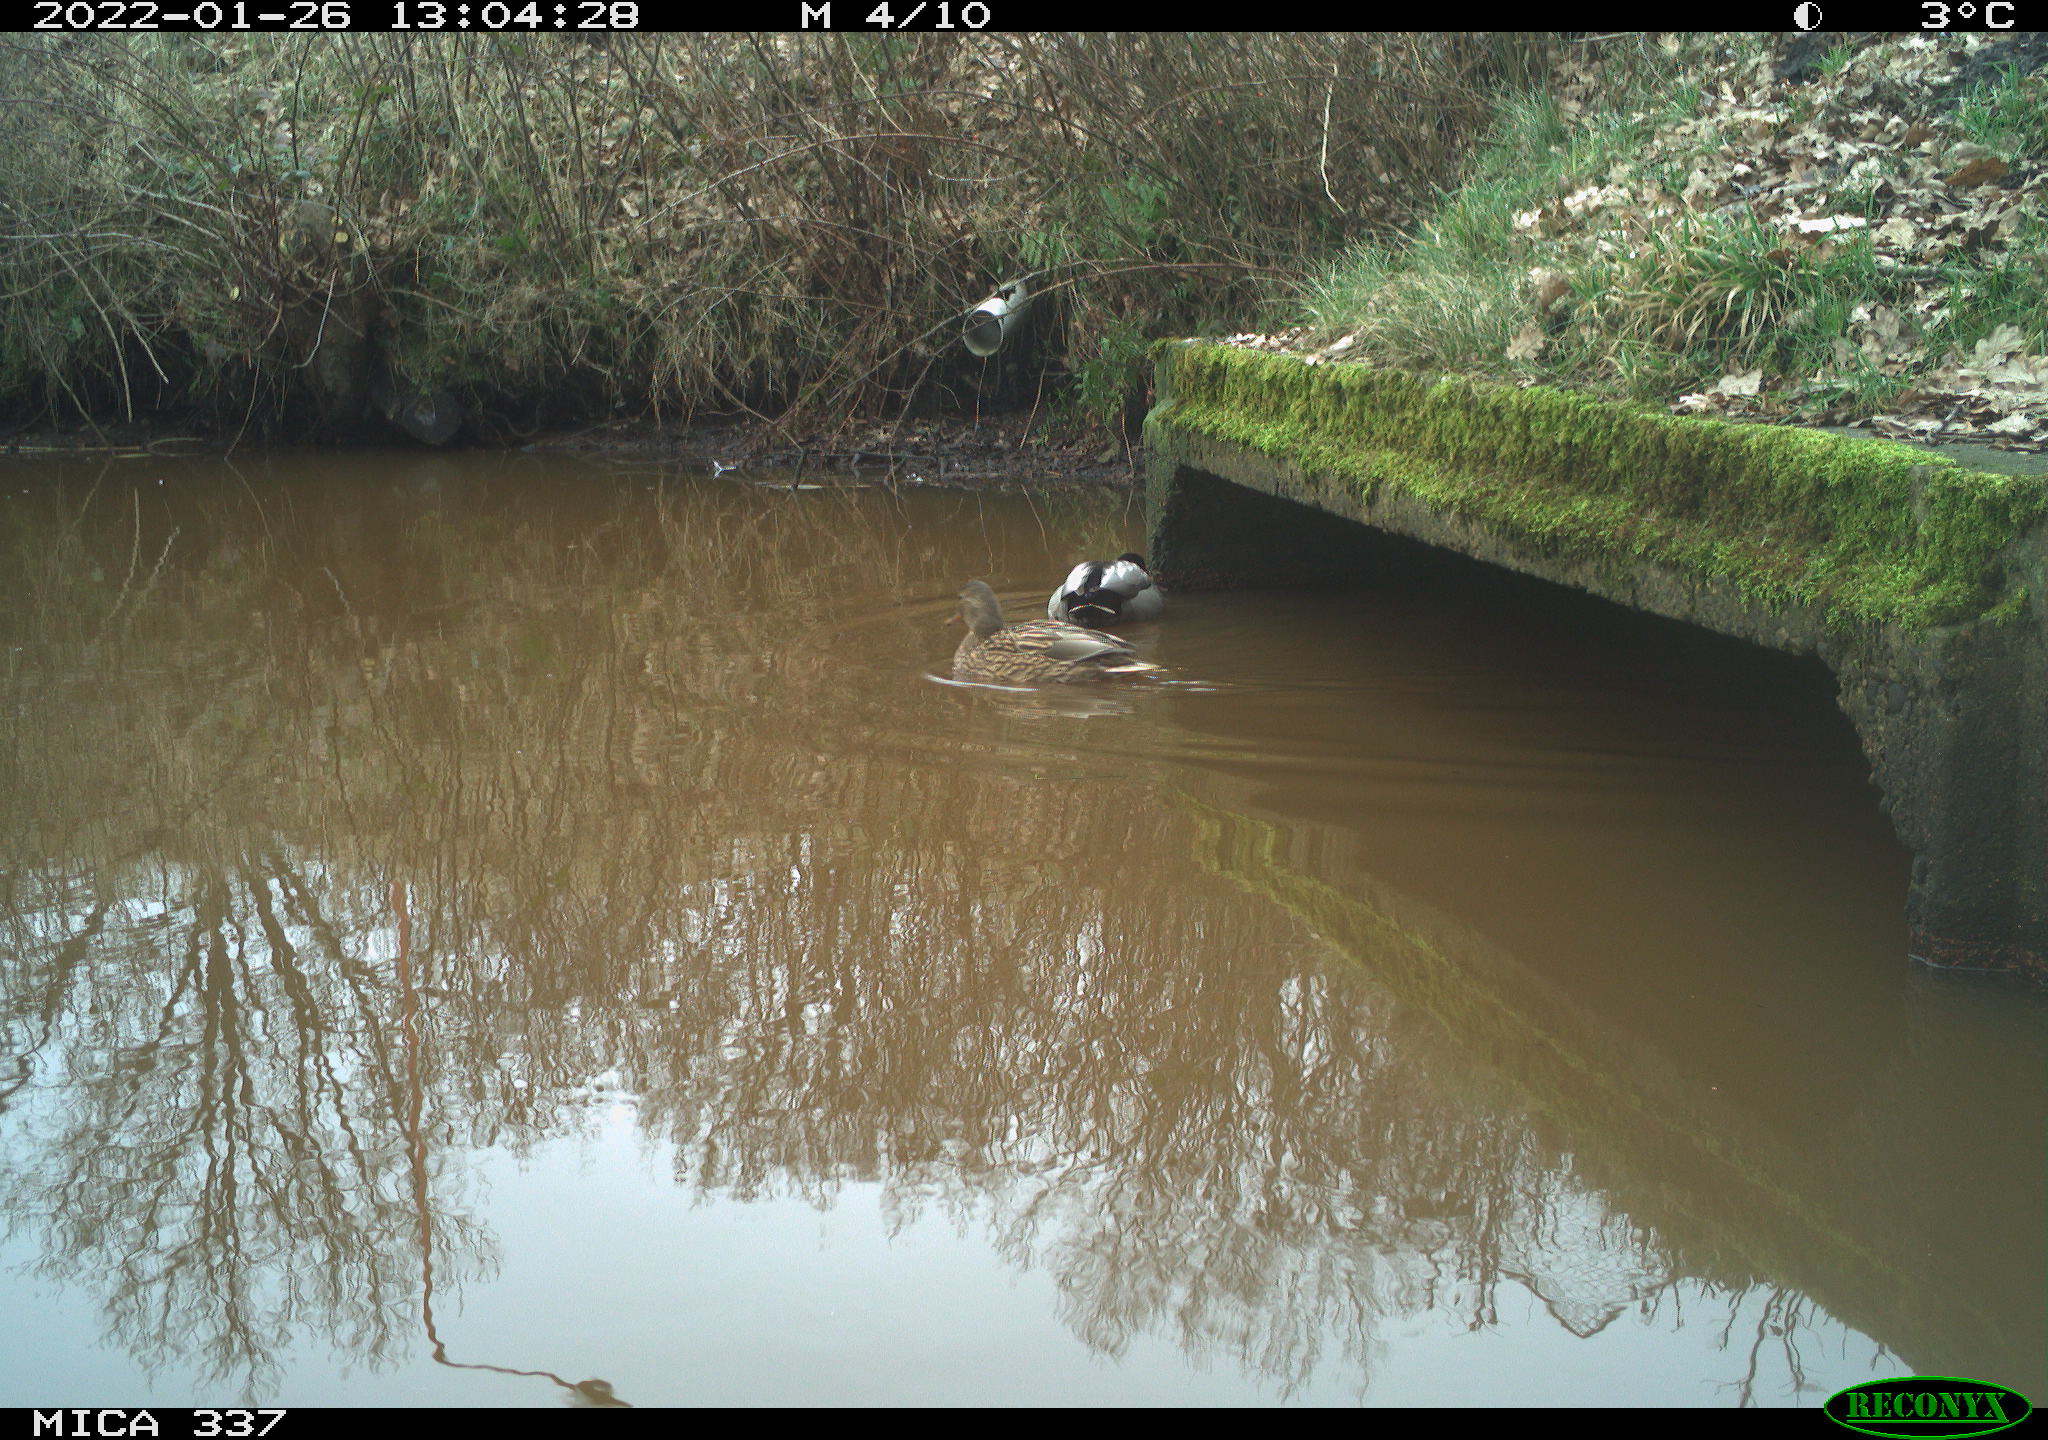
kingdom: Animalia
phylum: Chordata
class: Aves
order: Anseriformes
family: Anatidae
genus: Anas
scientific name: Anas platyrhynchos
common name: Mallard
